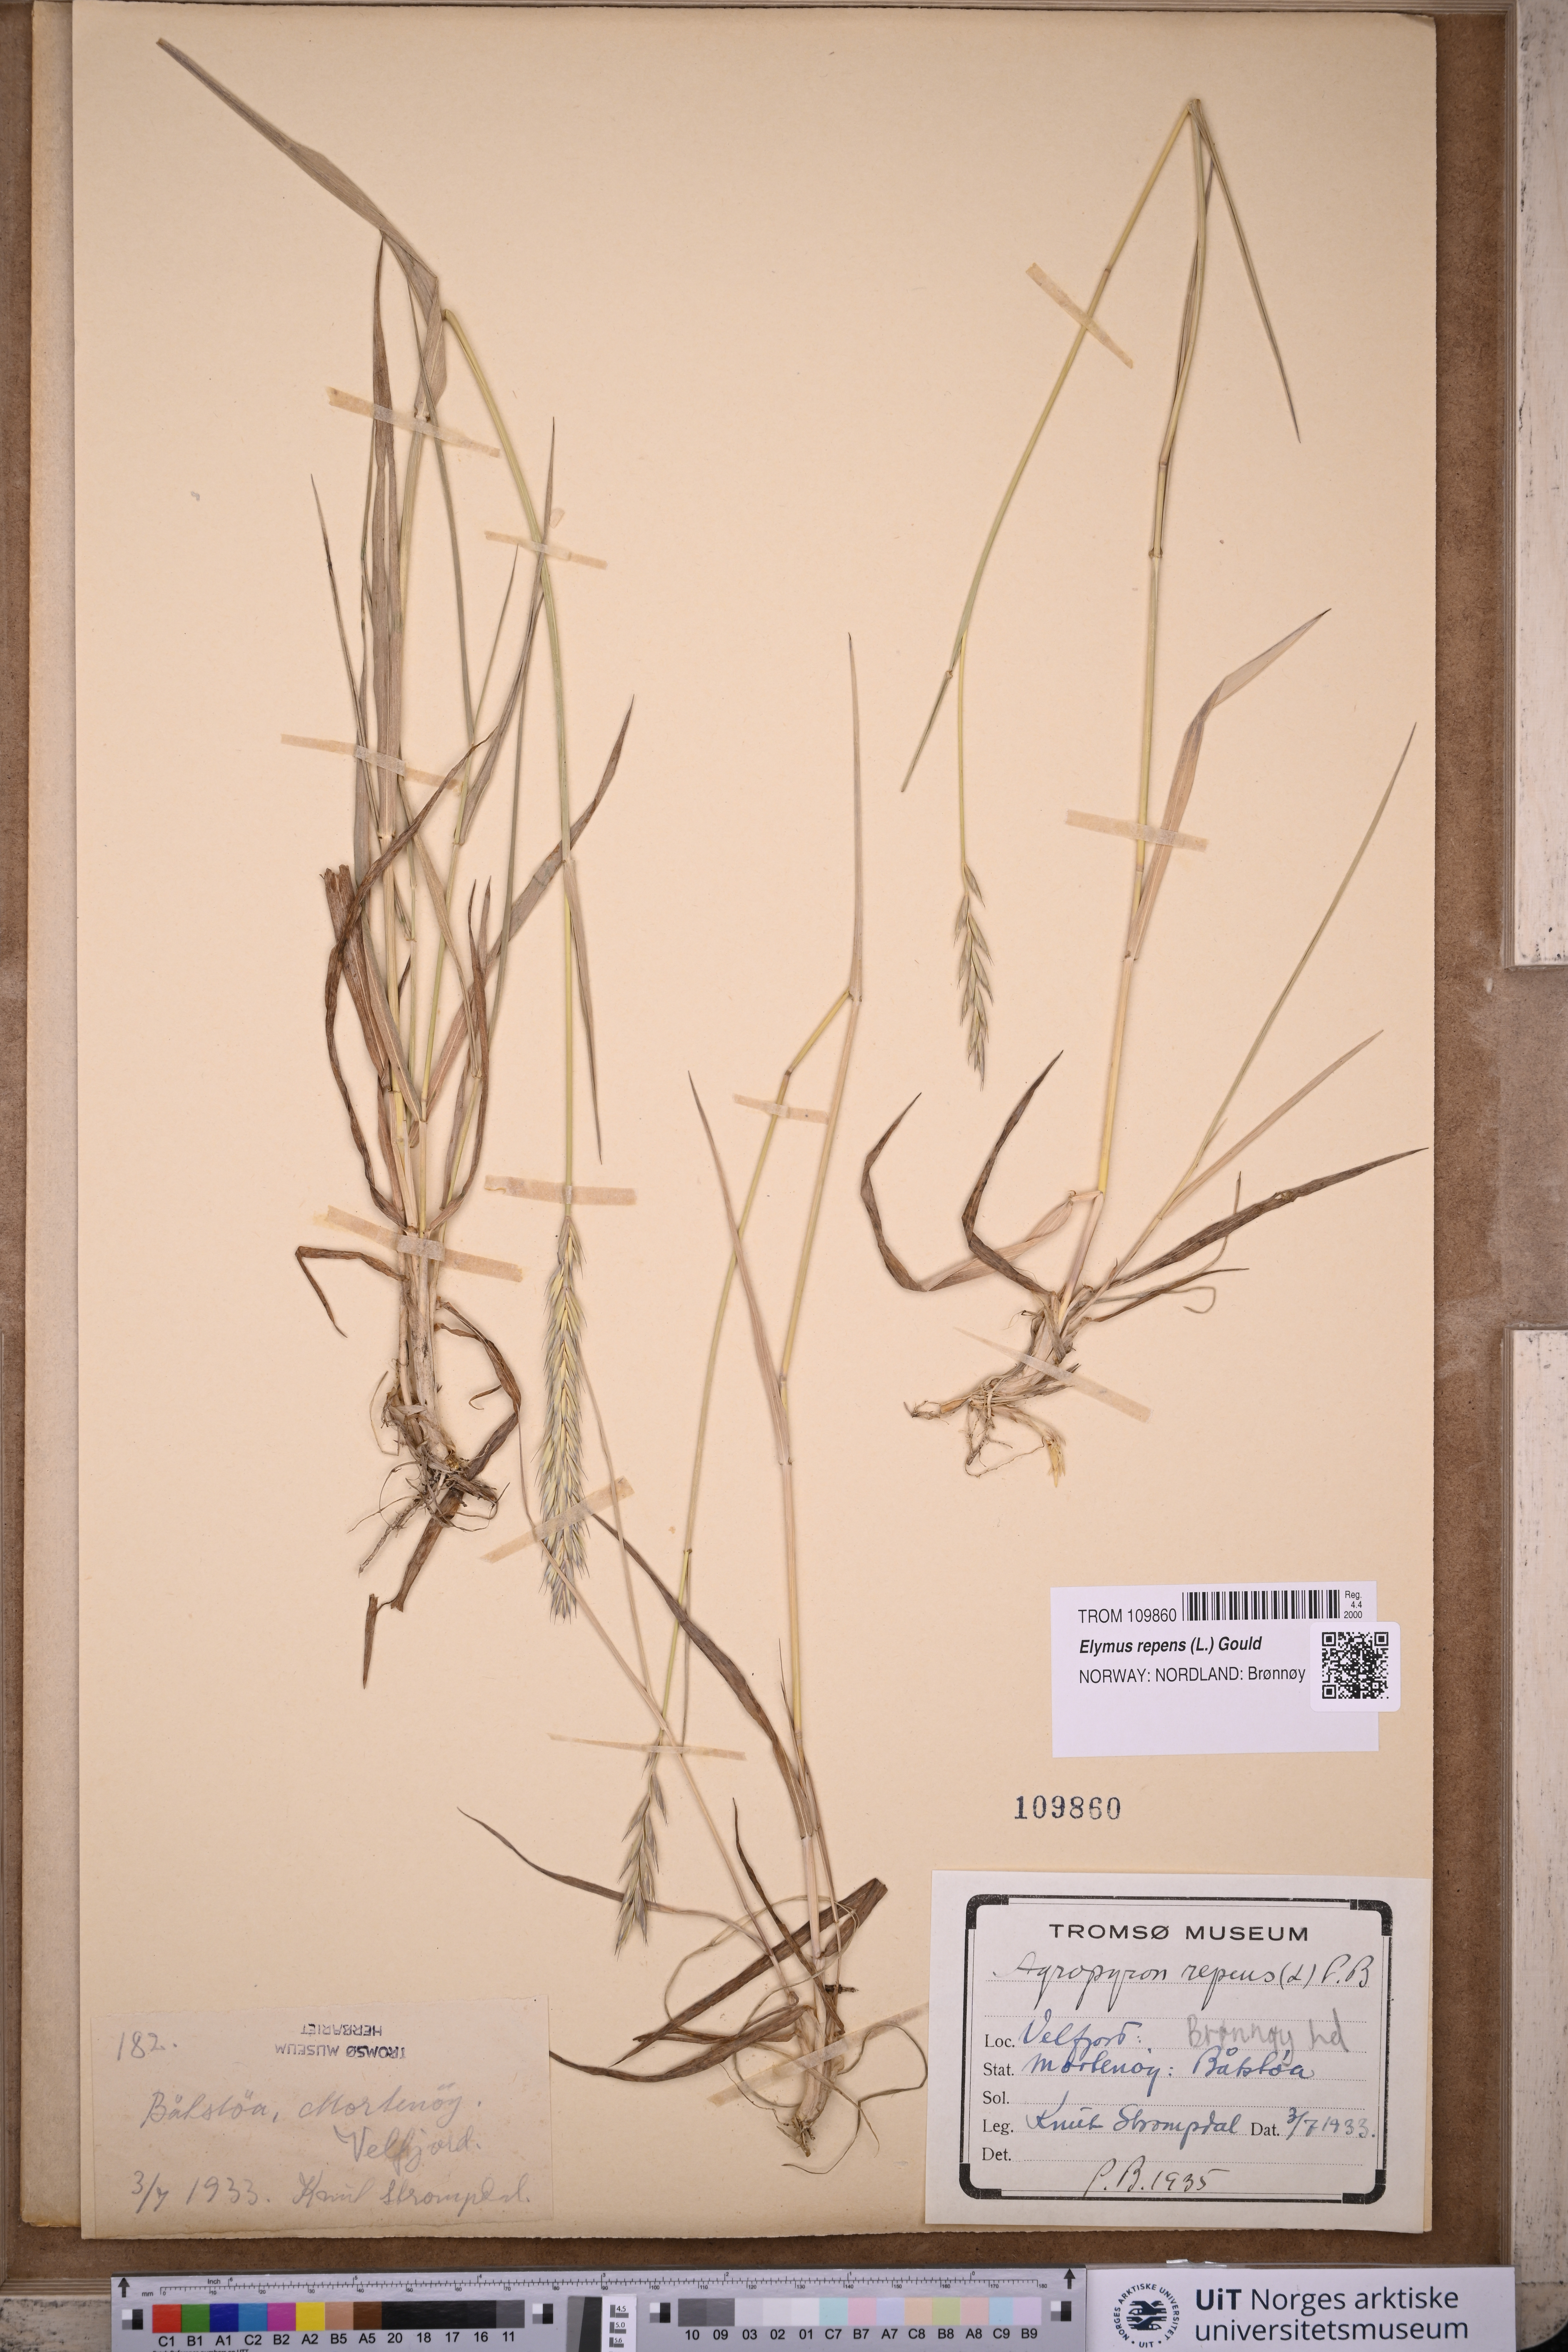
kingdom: Plantae
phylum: Tracheophyta
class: Liliopsida
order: Poales
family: Poaceae
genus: Elymus
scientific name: Elymus repens
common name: Quackgrass
